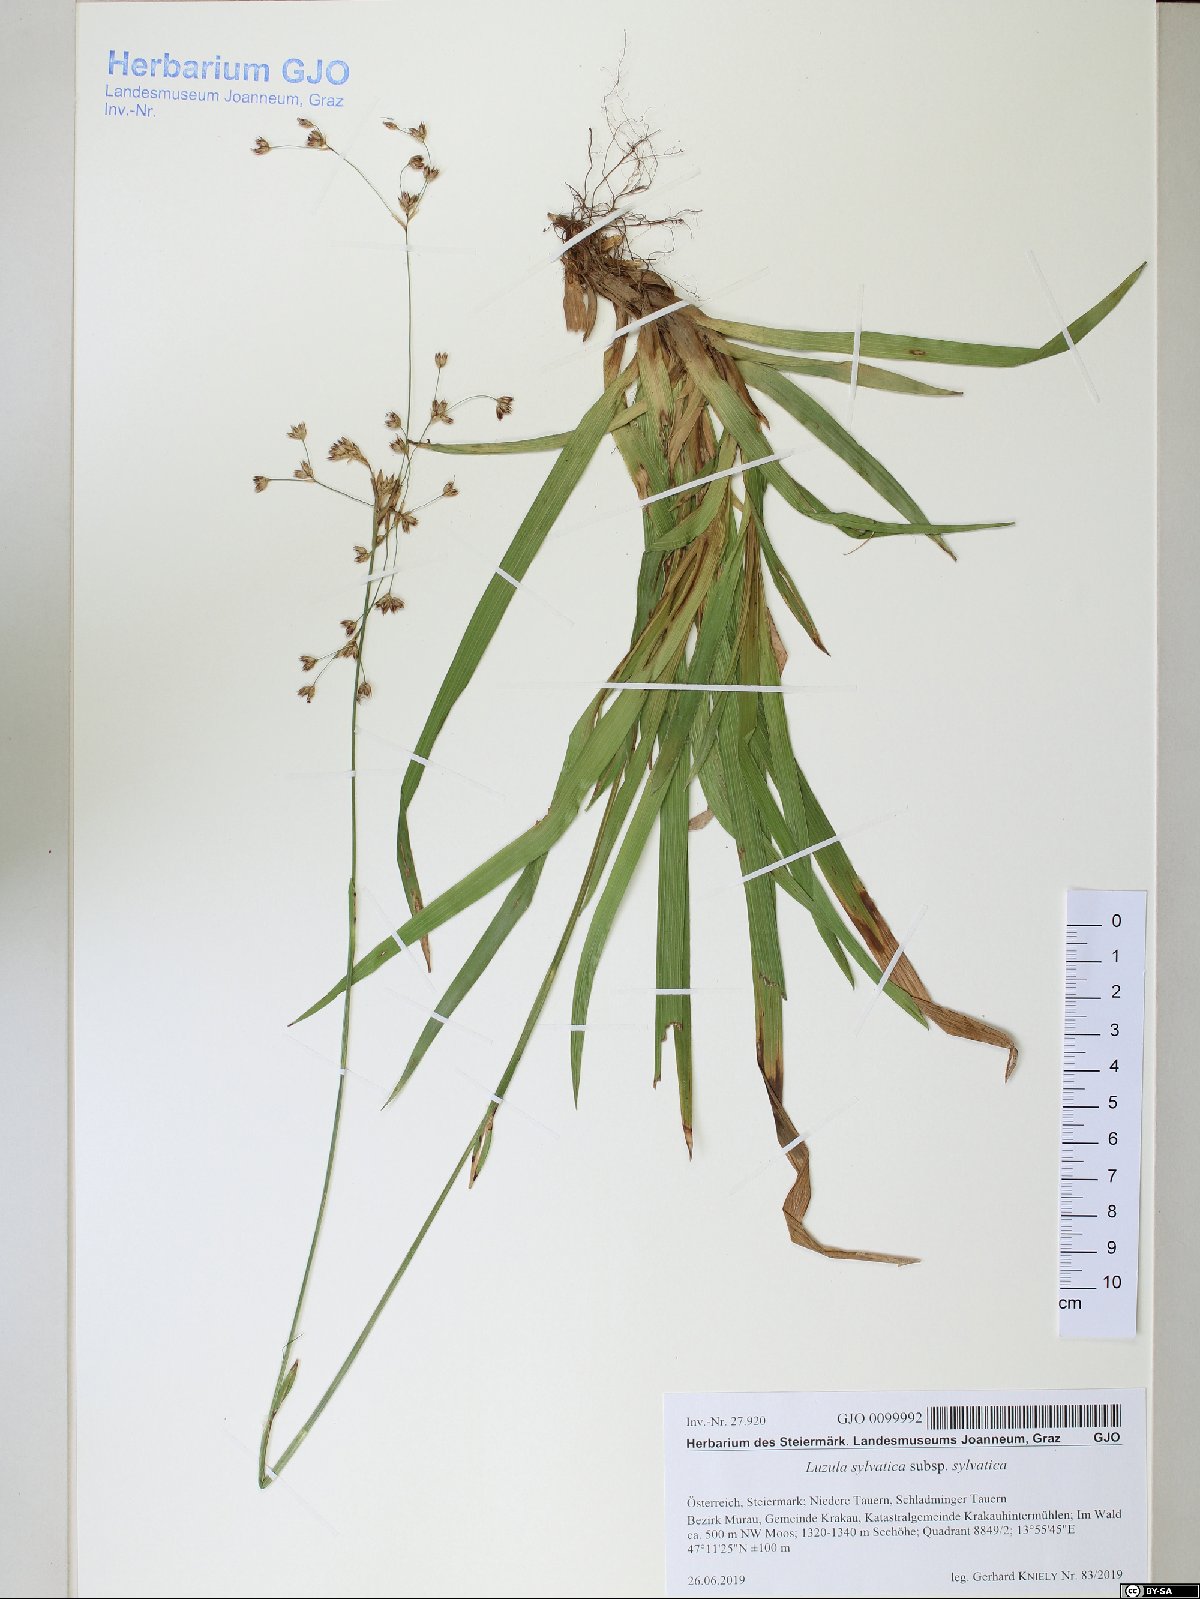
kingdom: Plantae
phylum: Tracheophyta
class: Liliopsida
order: Poales
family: Juncaceae
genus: Luzula
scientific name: Luzula sylvatica
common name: Great wood-rush
